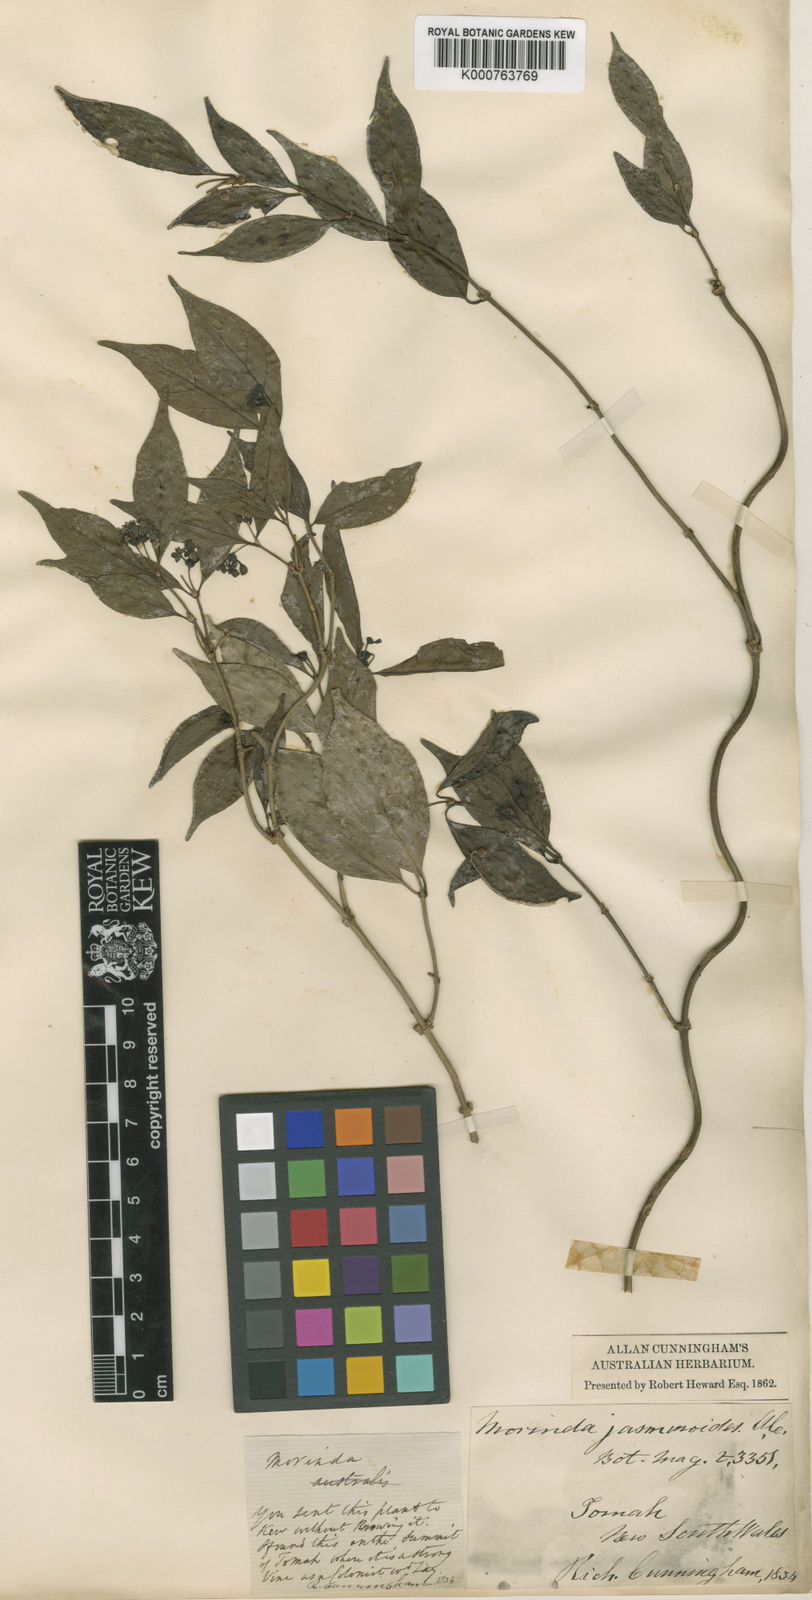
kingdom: Plantae
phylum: Tracheophyta
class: Magnoliopsida
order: Gentianales
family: Rubiaceae
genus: Gynochthodes
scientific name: Gynochthodes jasminoides
